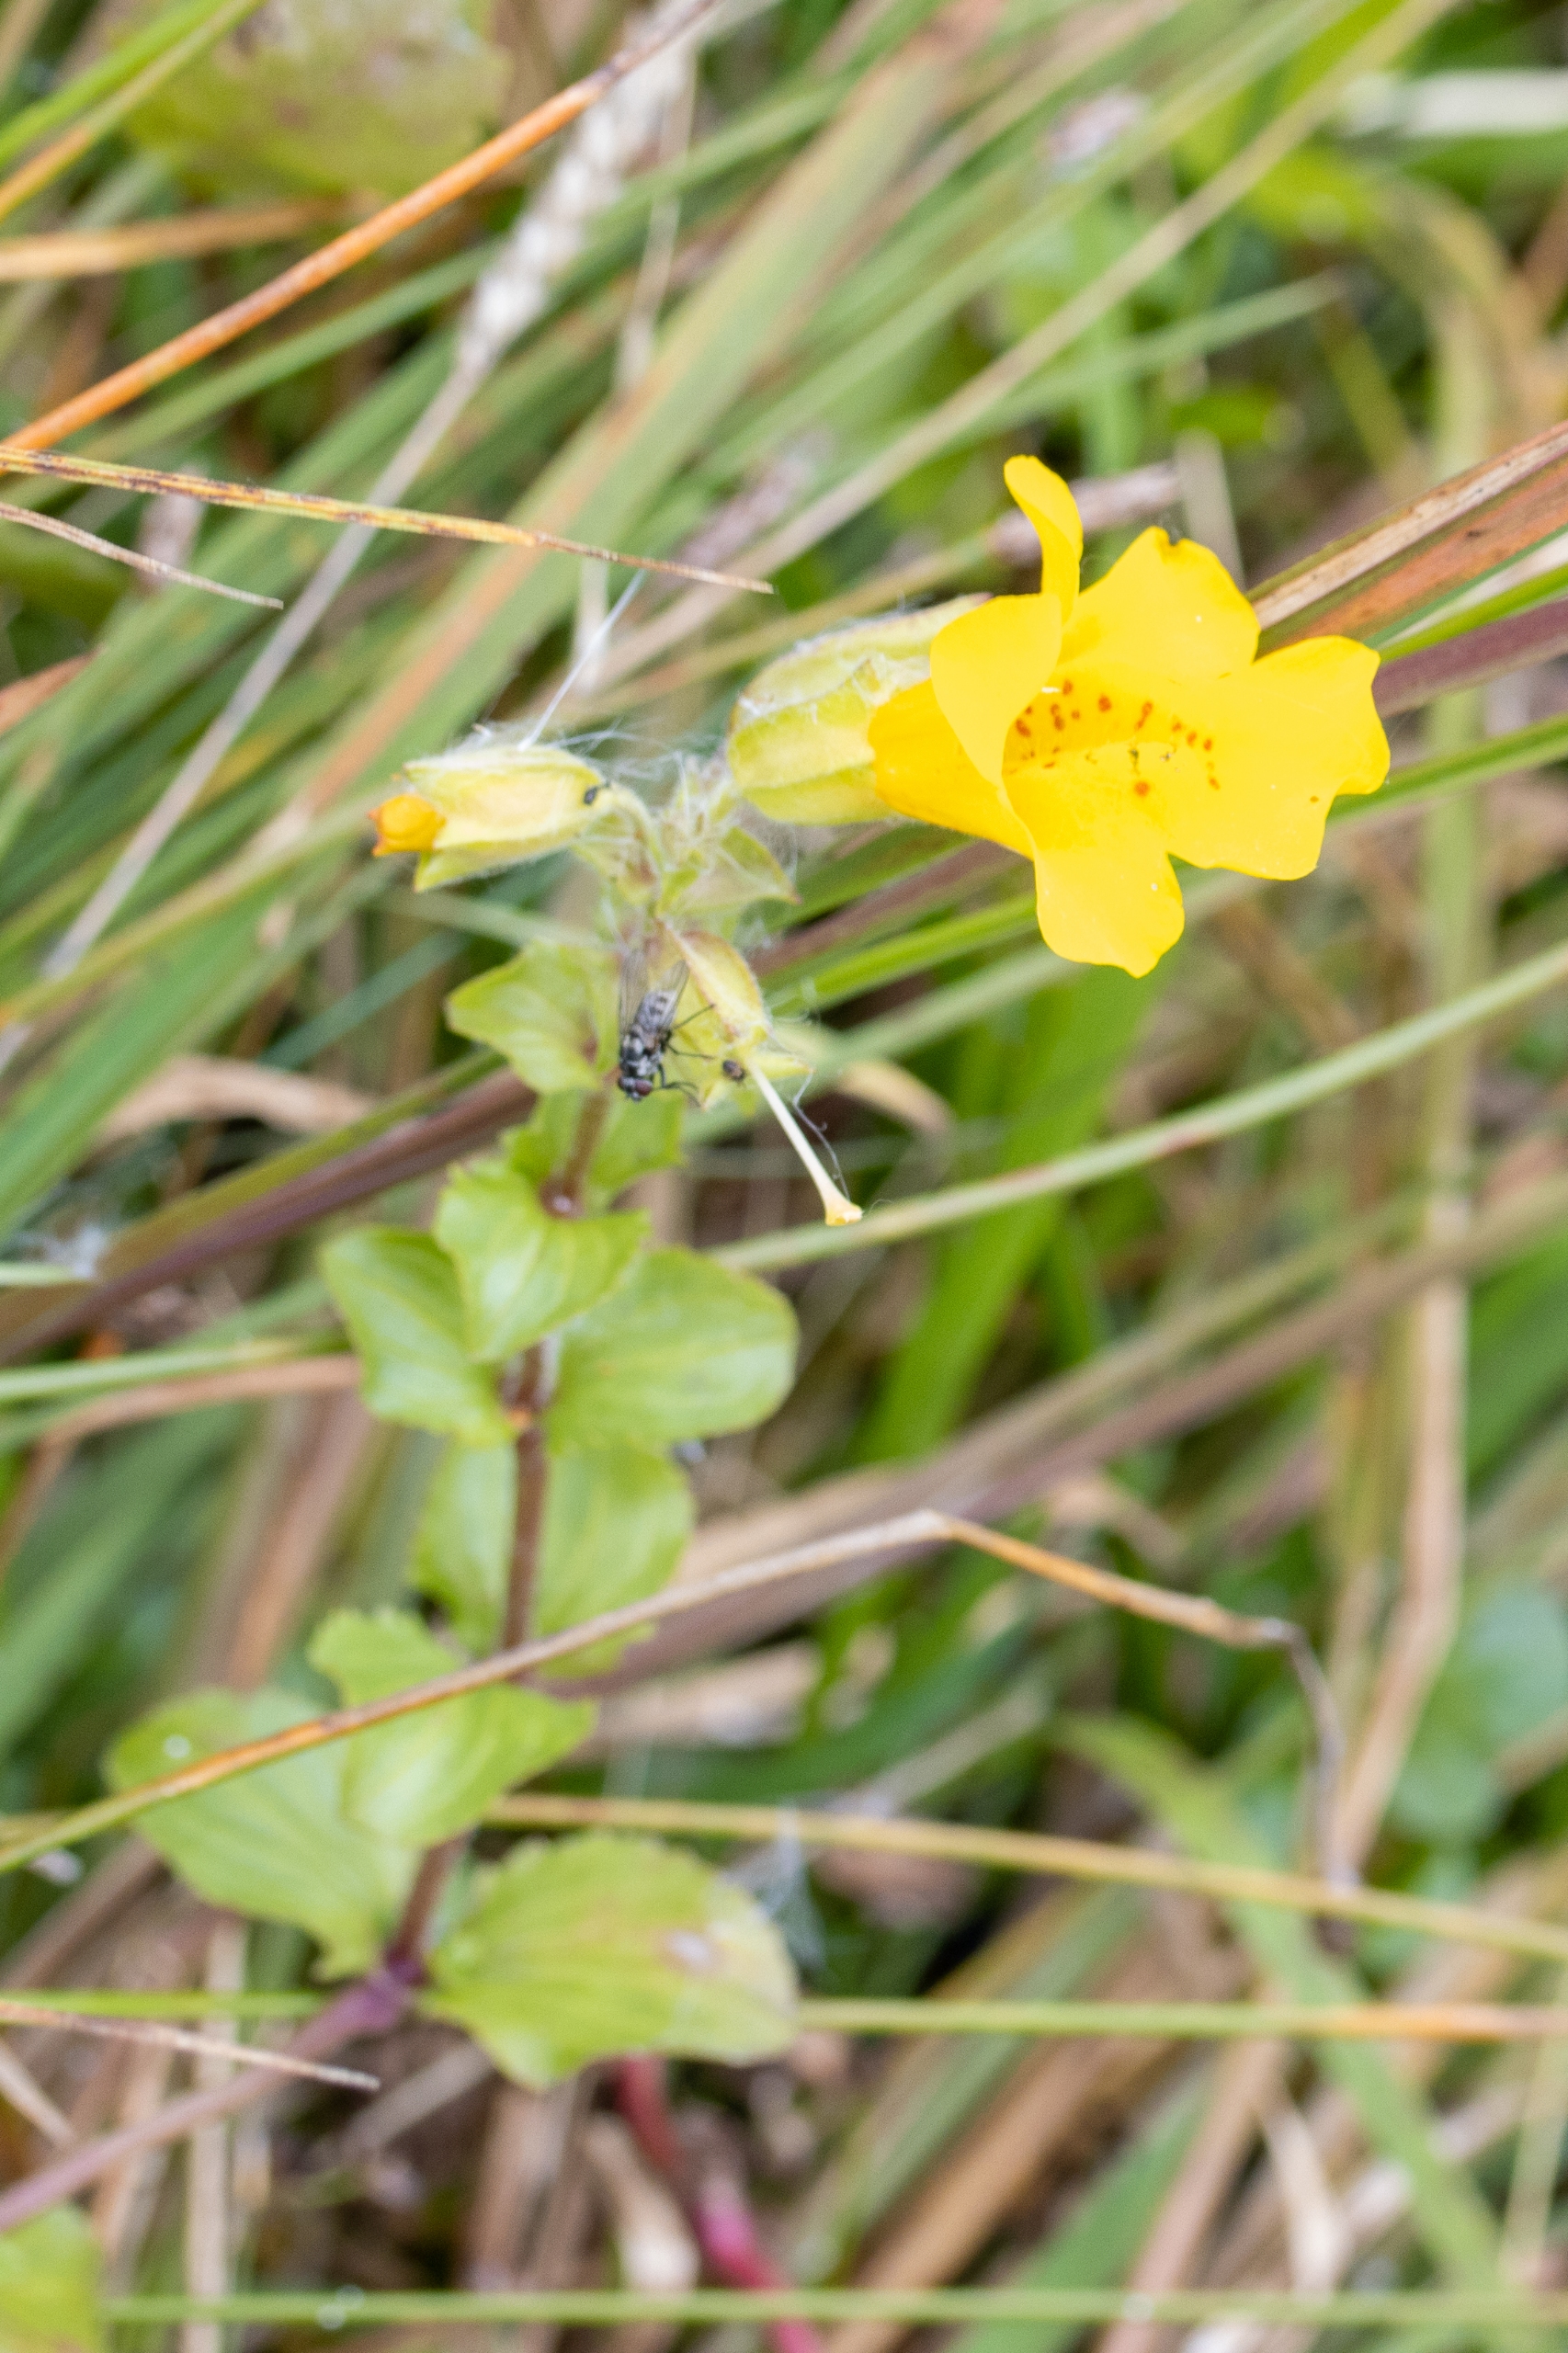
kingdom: Plantae
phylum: Tracheophyta
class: Magnoliopsida
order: Lamiales
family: Phrymaceae
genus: Erythranthe
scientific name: Erythranthe guttata
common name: Abeblomst
